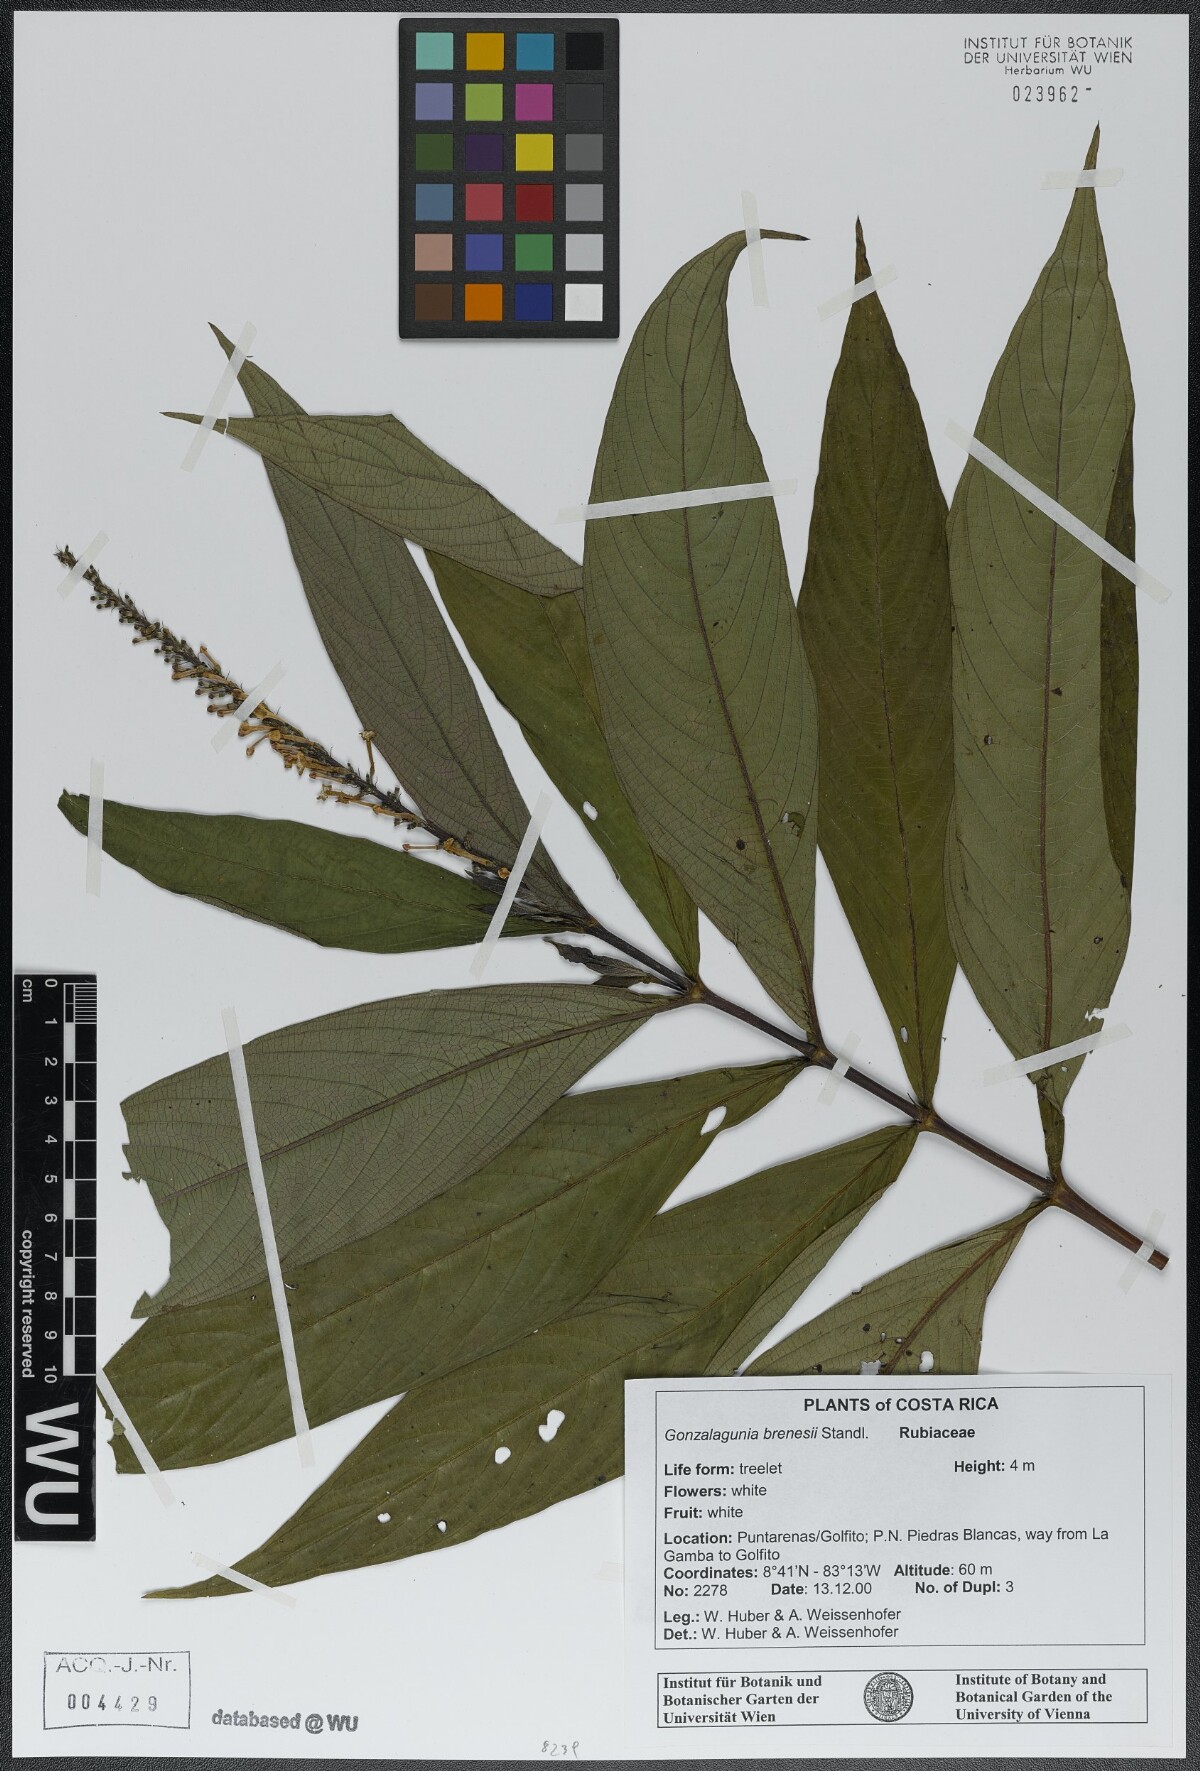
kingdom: Plantae
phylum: Tracheophyta
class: Magnoliopsida
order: Gentianales
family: Rubiaceae
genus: Gonzalagunia
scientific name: Gonzalagunia brenesii
